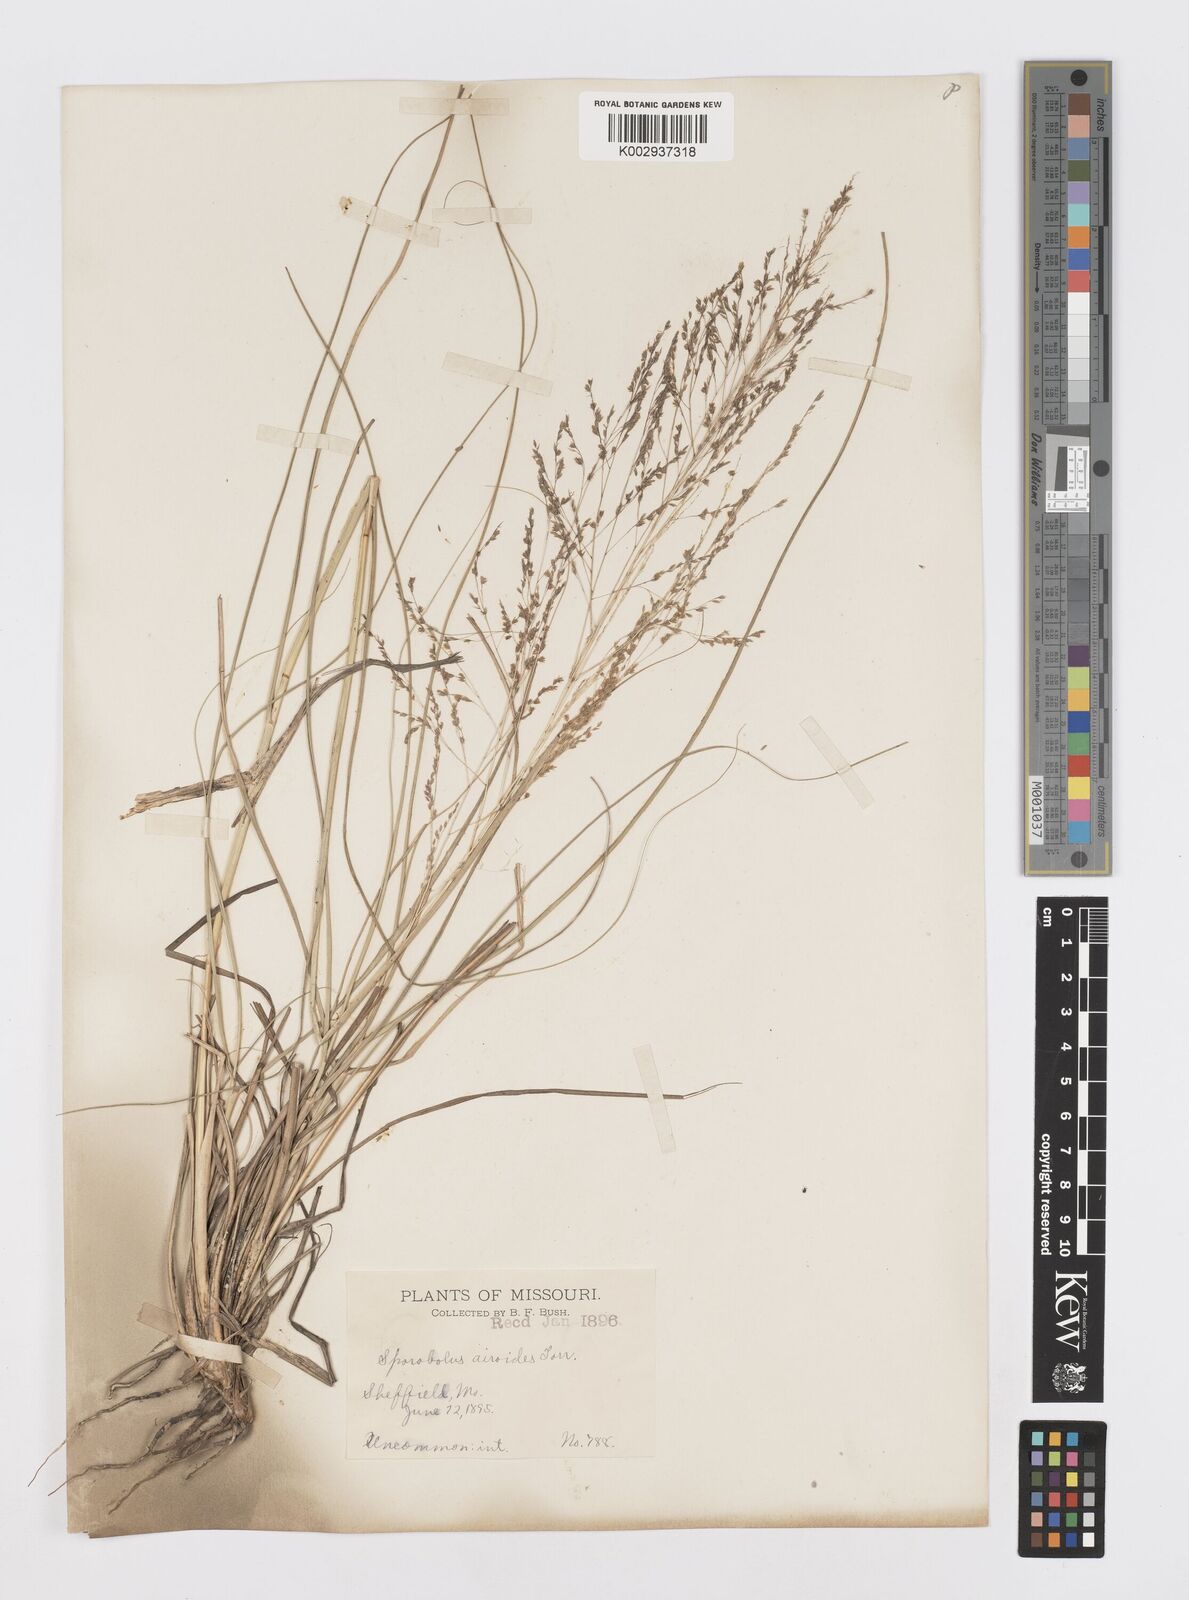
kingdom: Plantae
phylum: Tracheophyta
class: Liliopsida
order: Poales
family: Poaceae
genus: Sporobolus
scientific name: Sporobolus airoides
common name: Alkali sacaton
